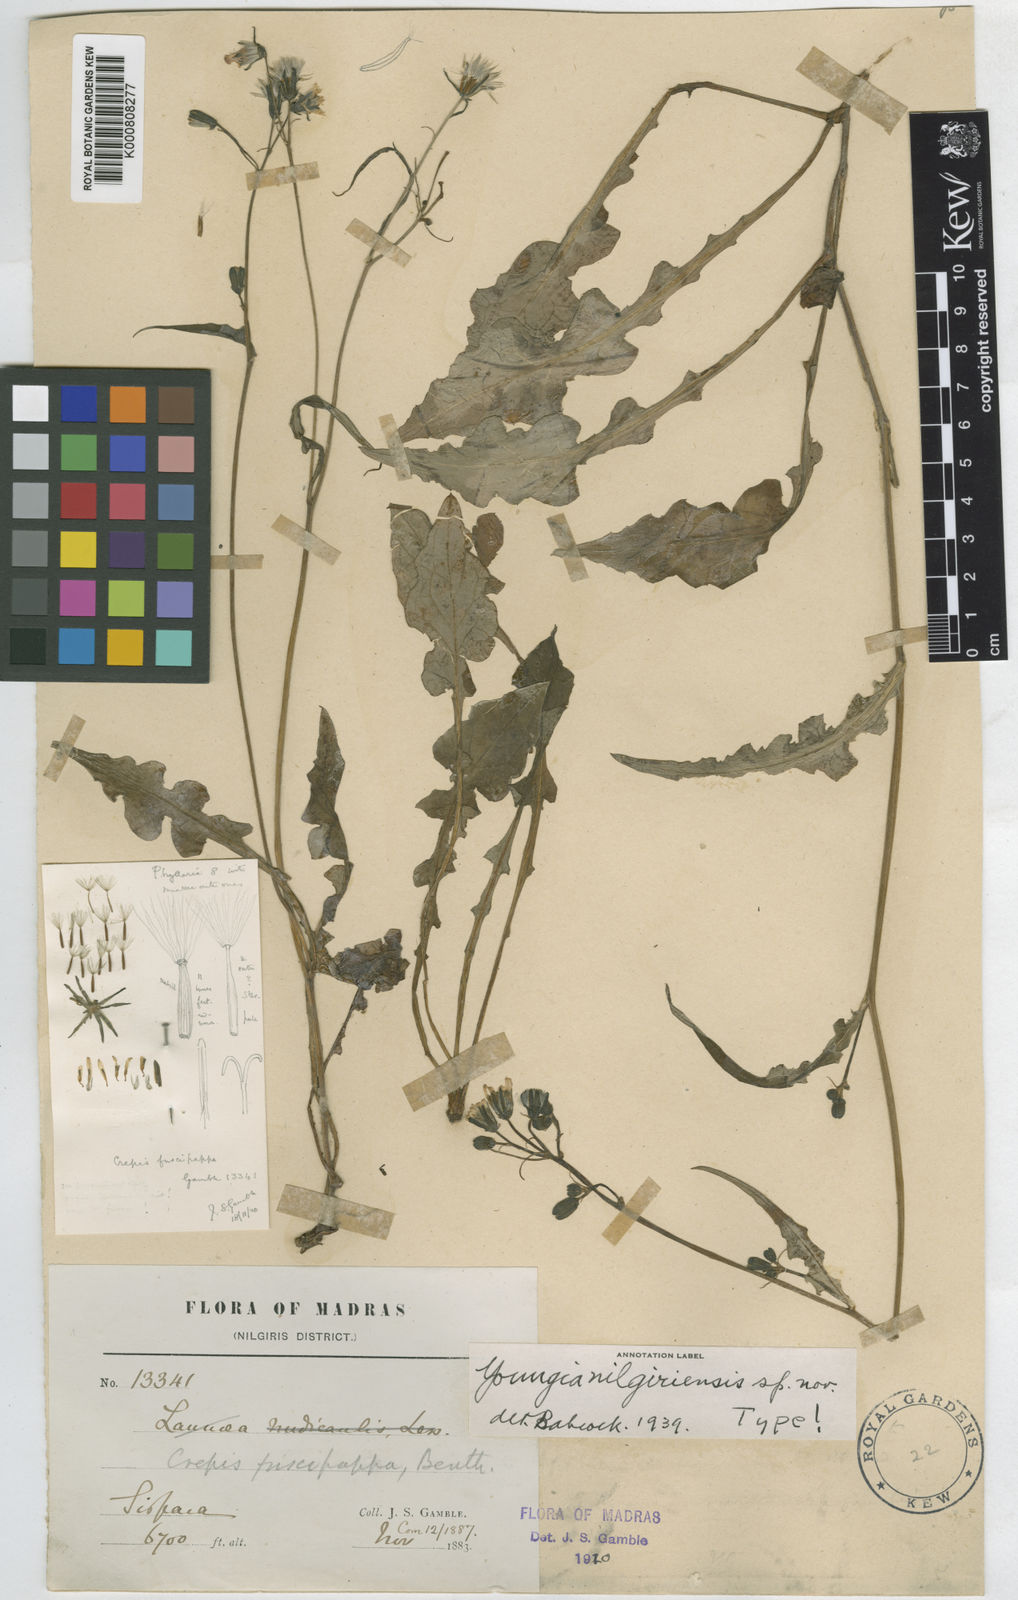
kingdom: Plantae
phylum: Tracheophyta
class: Magnoliopsida
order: Asterales
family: Asteraceae
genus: Youngia
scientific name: Youngia nilgiriensis
